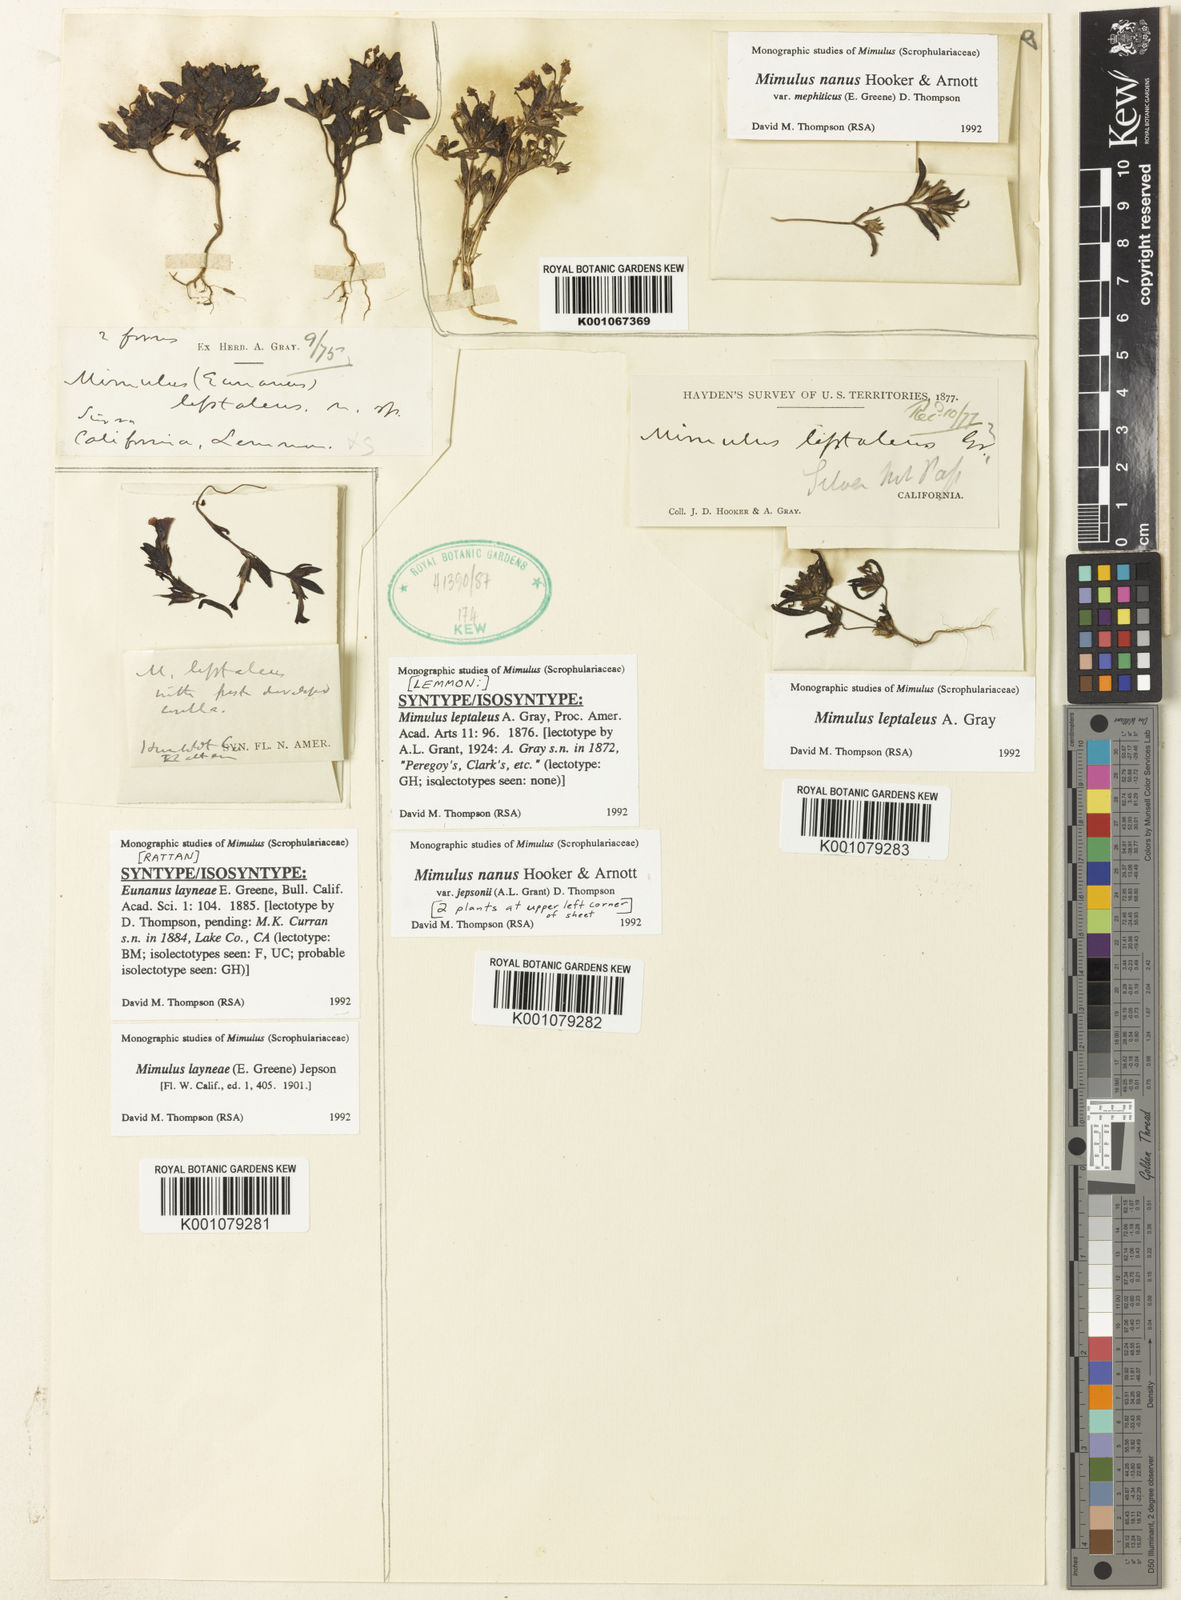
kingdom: Plantae
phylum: Tracheophyta
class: Magnoliopsida
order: Lamiales
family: Phrymaceae
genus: Diplacus
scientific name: Diplacus jepsonii
